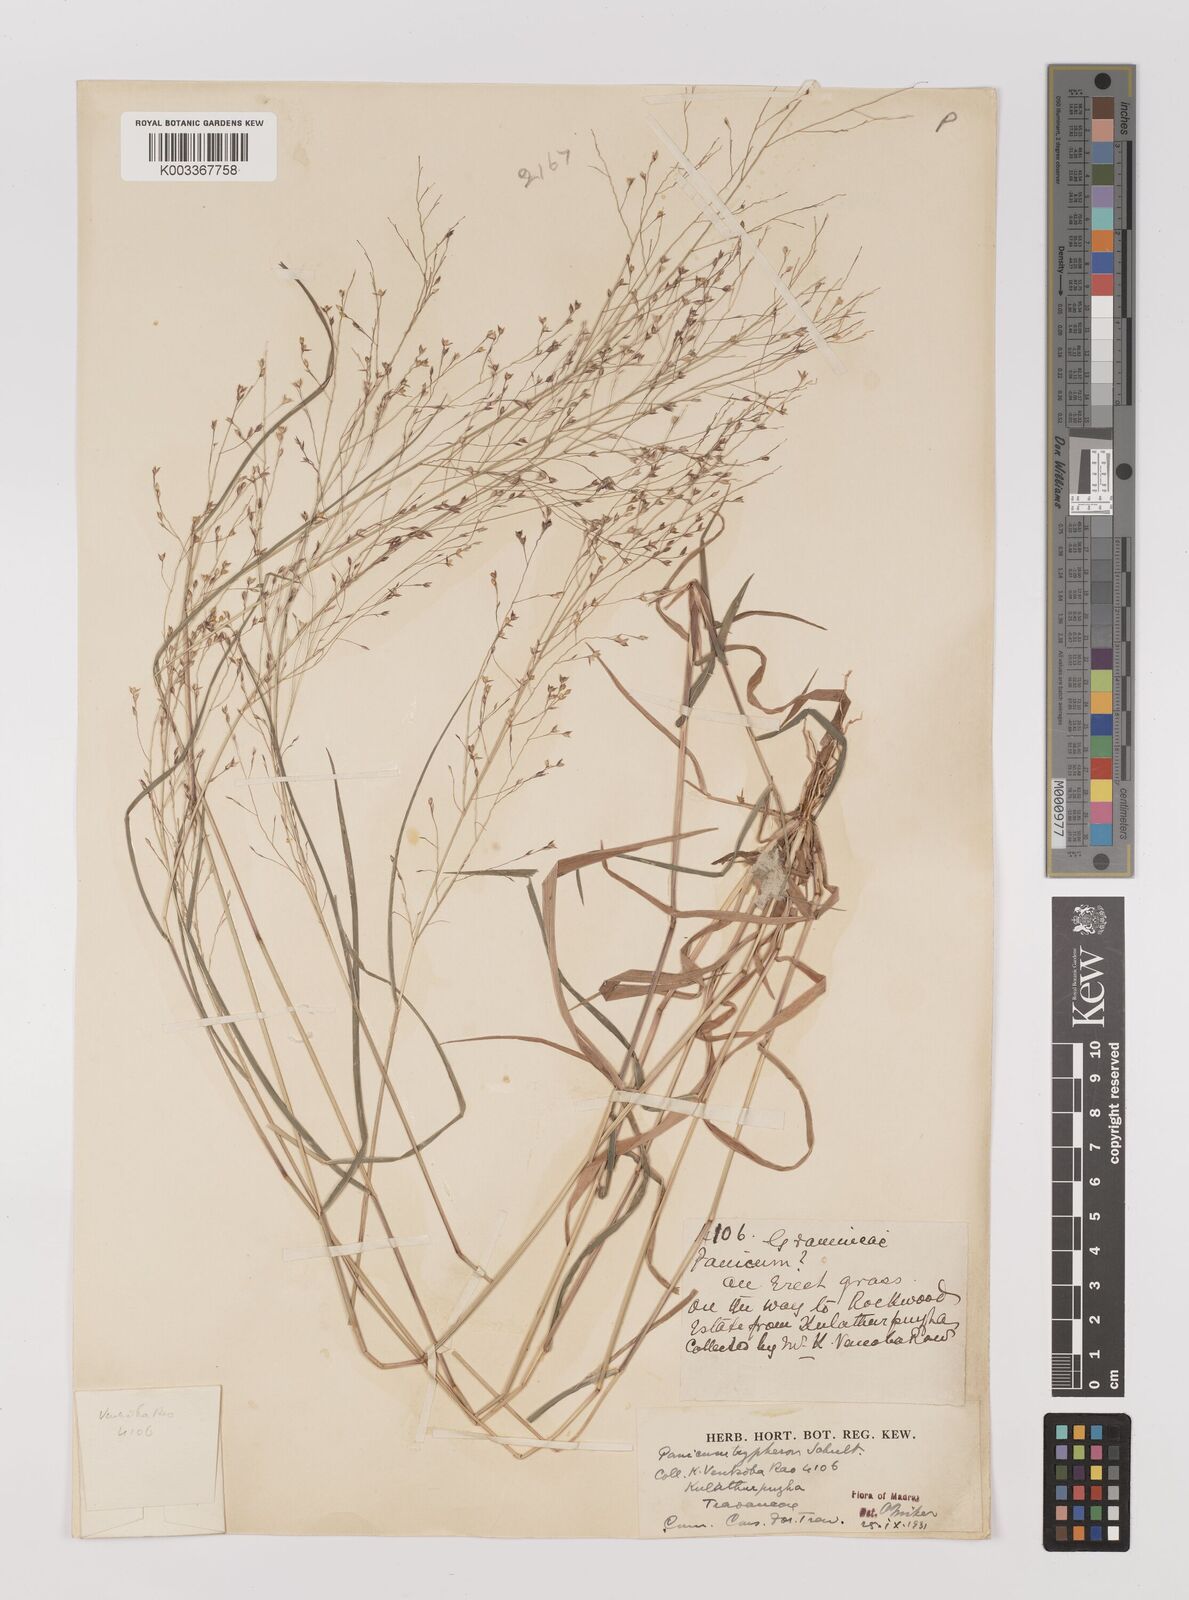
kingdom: Plantae
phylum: Tracheophyta
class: Liliopsida
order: Poales
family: Poaceae
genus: Panicum
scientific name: Panicum curviflorum
